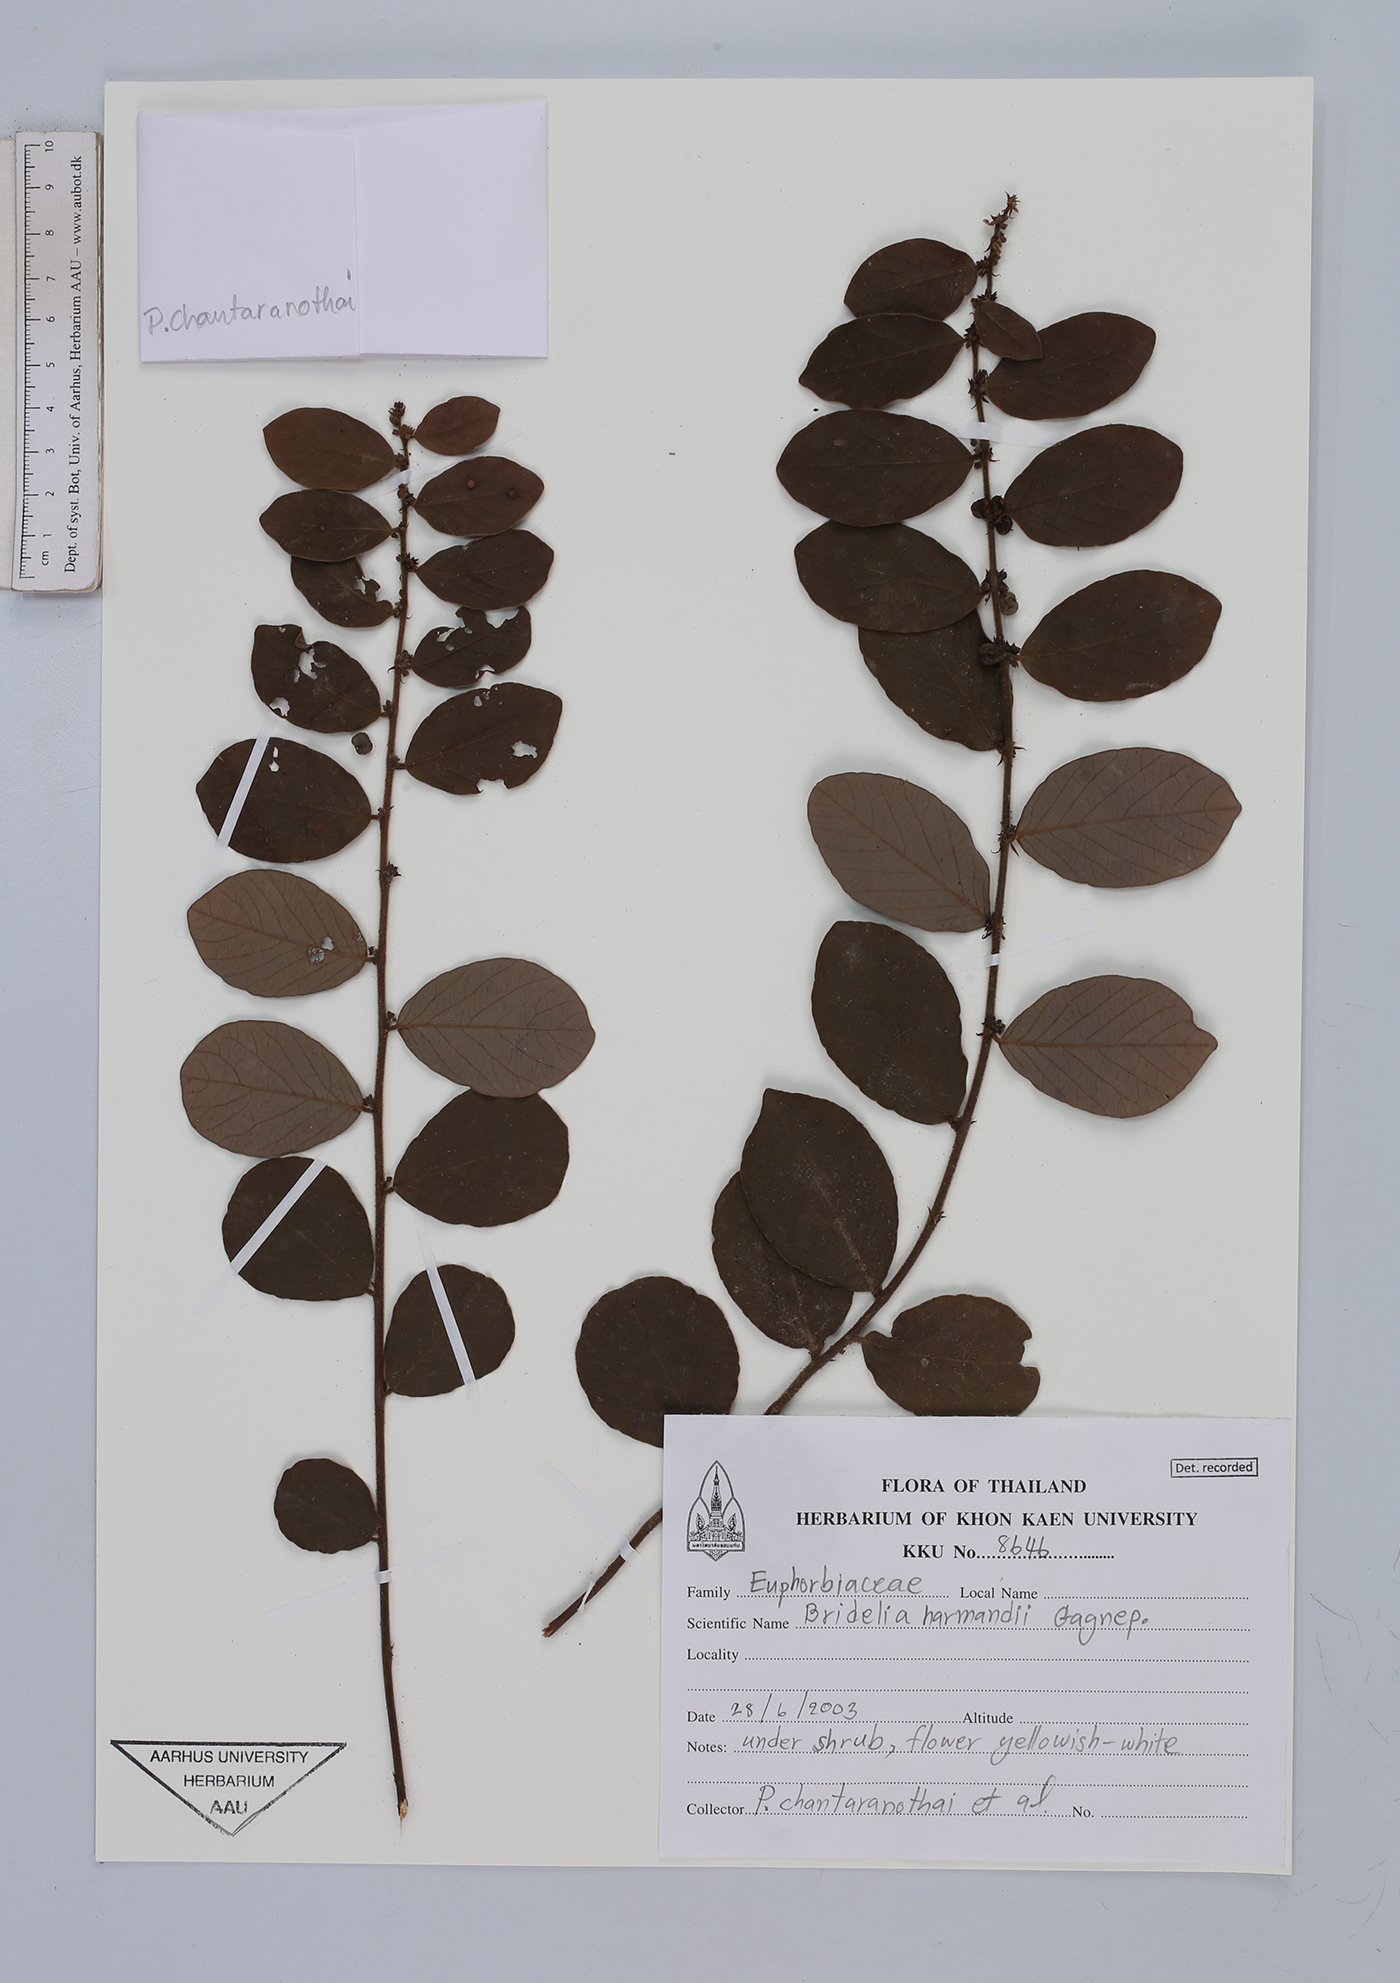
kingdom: Plantae
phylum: Tracheophyta
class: Magnoliopsida
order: Malpighiales
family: Phyllanthaceae
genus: Bridelia
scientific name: Bridelia harmandii
